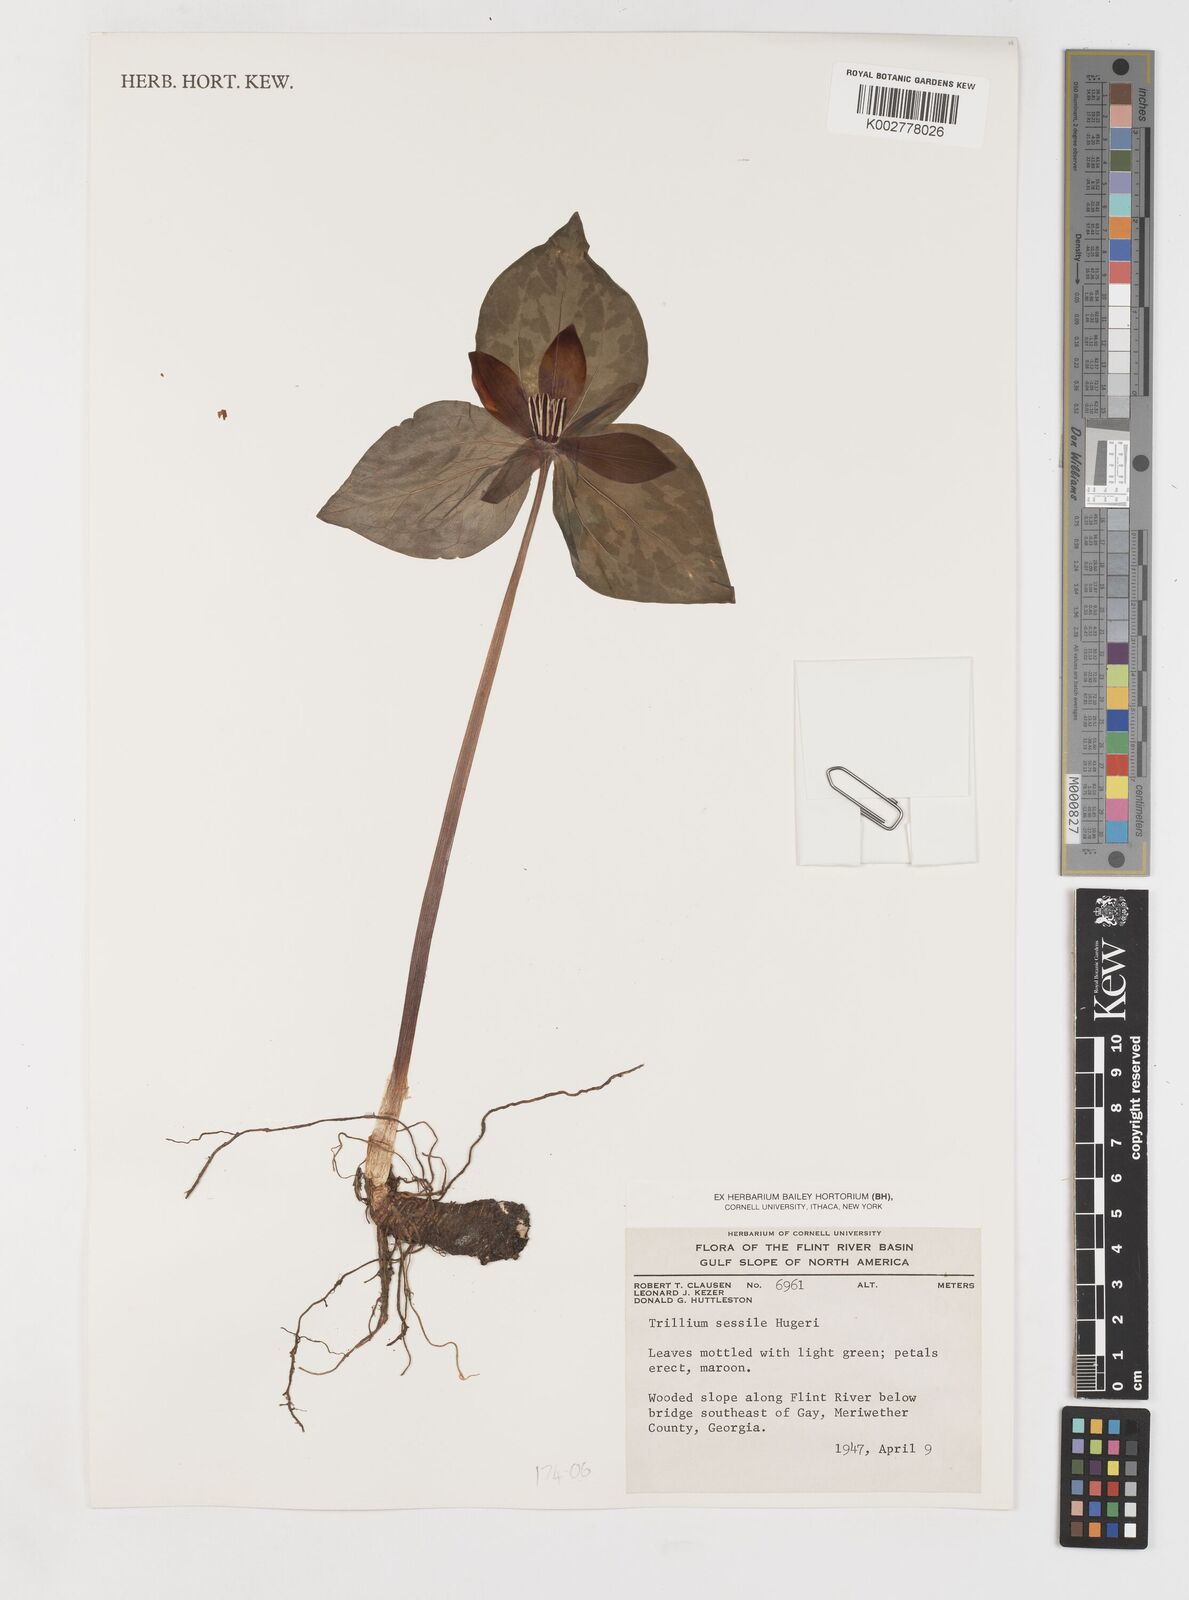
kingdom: Plantae
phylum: Tracheophyta
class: Liliopsida
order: Liliales
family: Melanthiaceae
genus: Trillium
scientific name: Trillium sessile
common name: Sessile trillium
